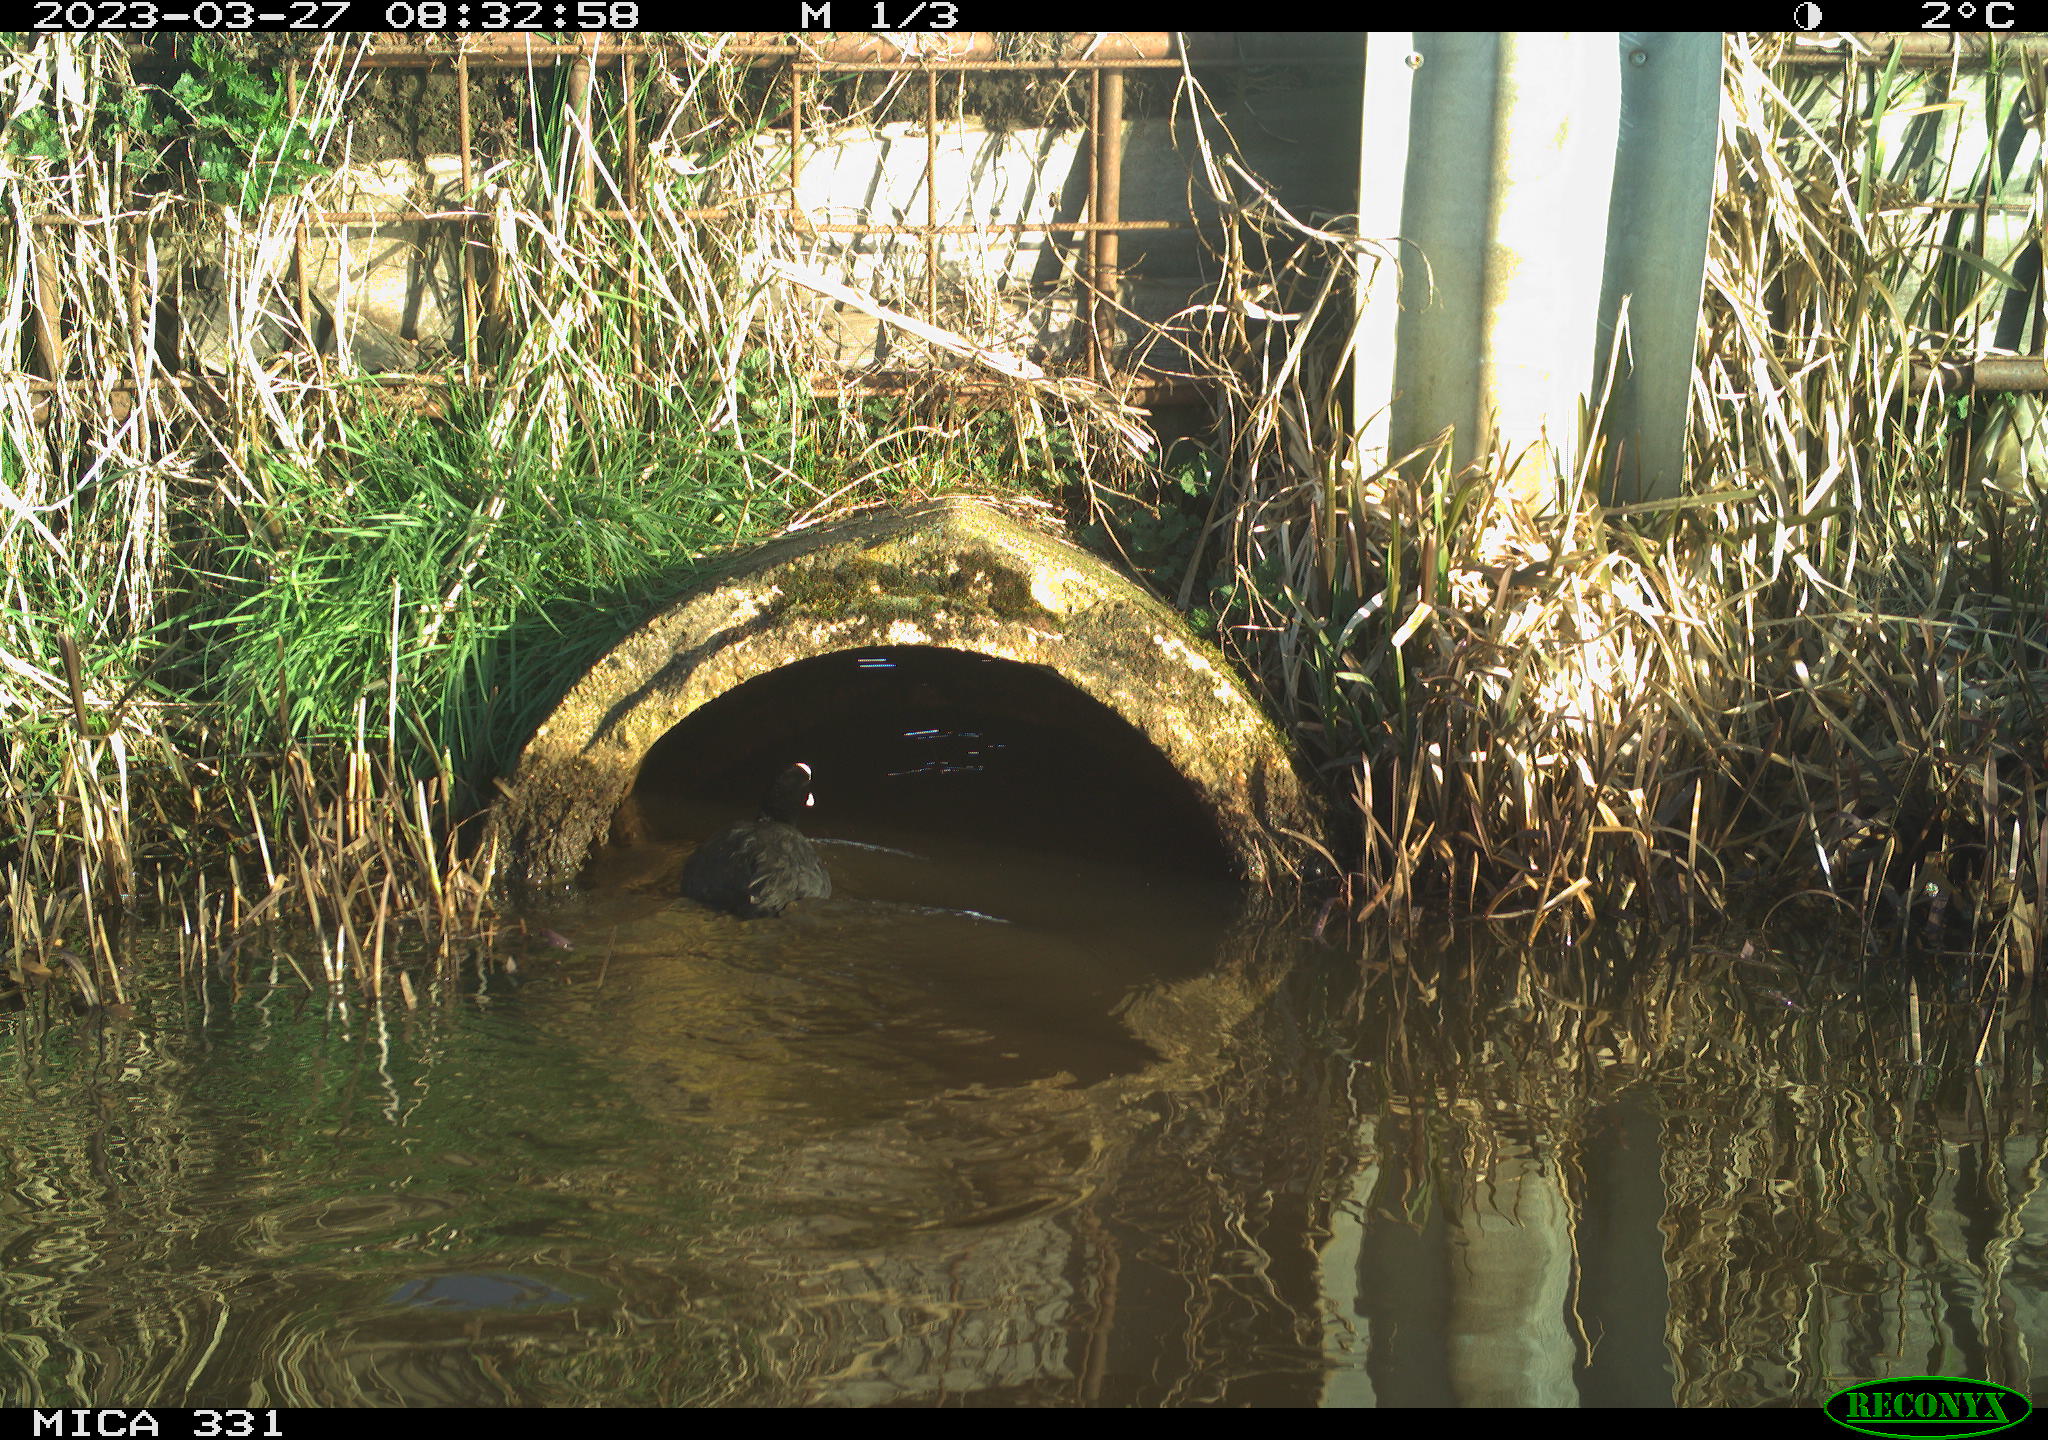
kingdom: Animalia
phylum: Chordata
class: Aves
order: Gruiformes
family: Rallidae
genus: Fulica
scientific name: Fulica atra
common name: Eurasian coot
